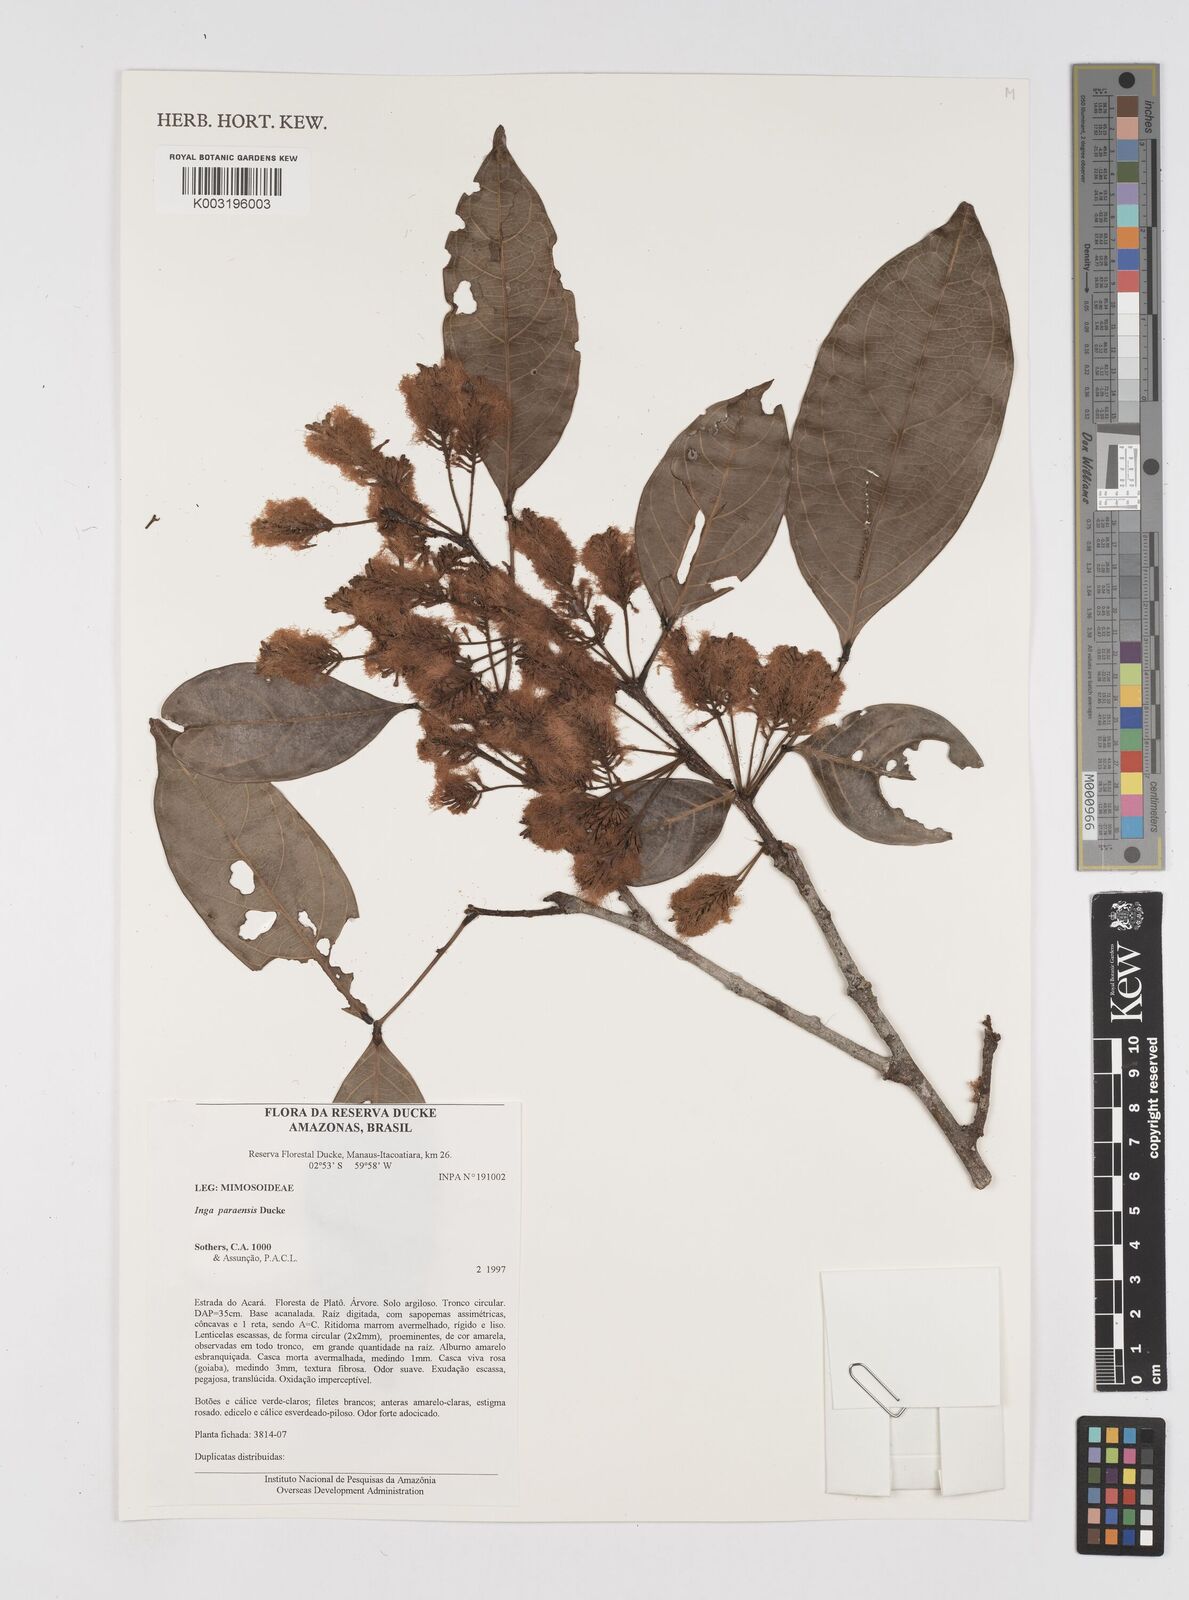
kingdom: Plantae
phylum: Tracheophyta
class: Magnoliopsida
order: Fabales
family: Fabaceae
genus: Inga
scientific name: Inga paraensis
